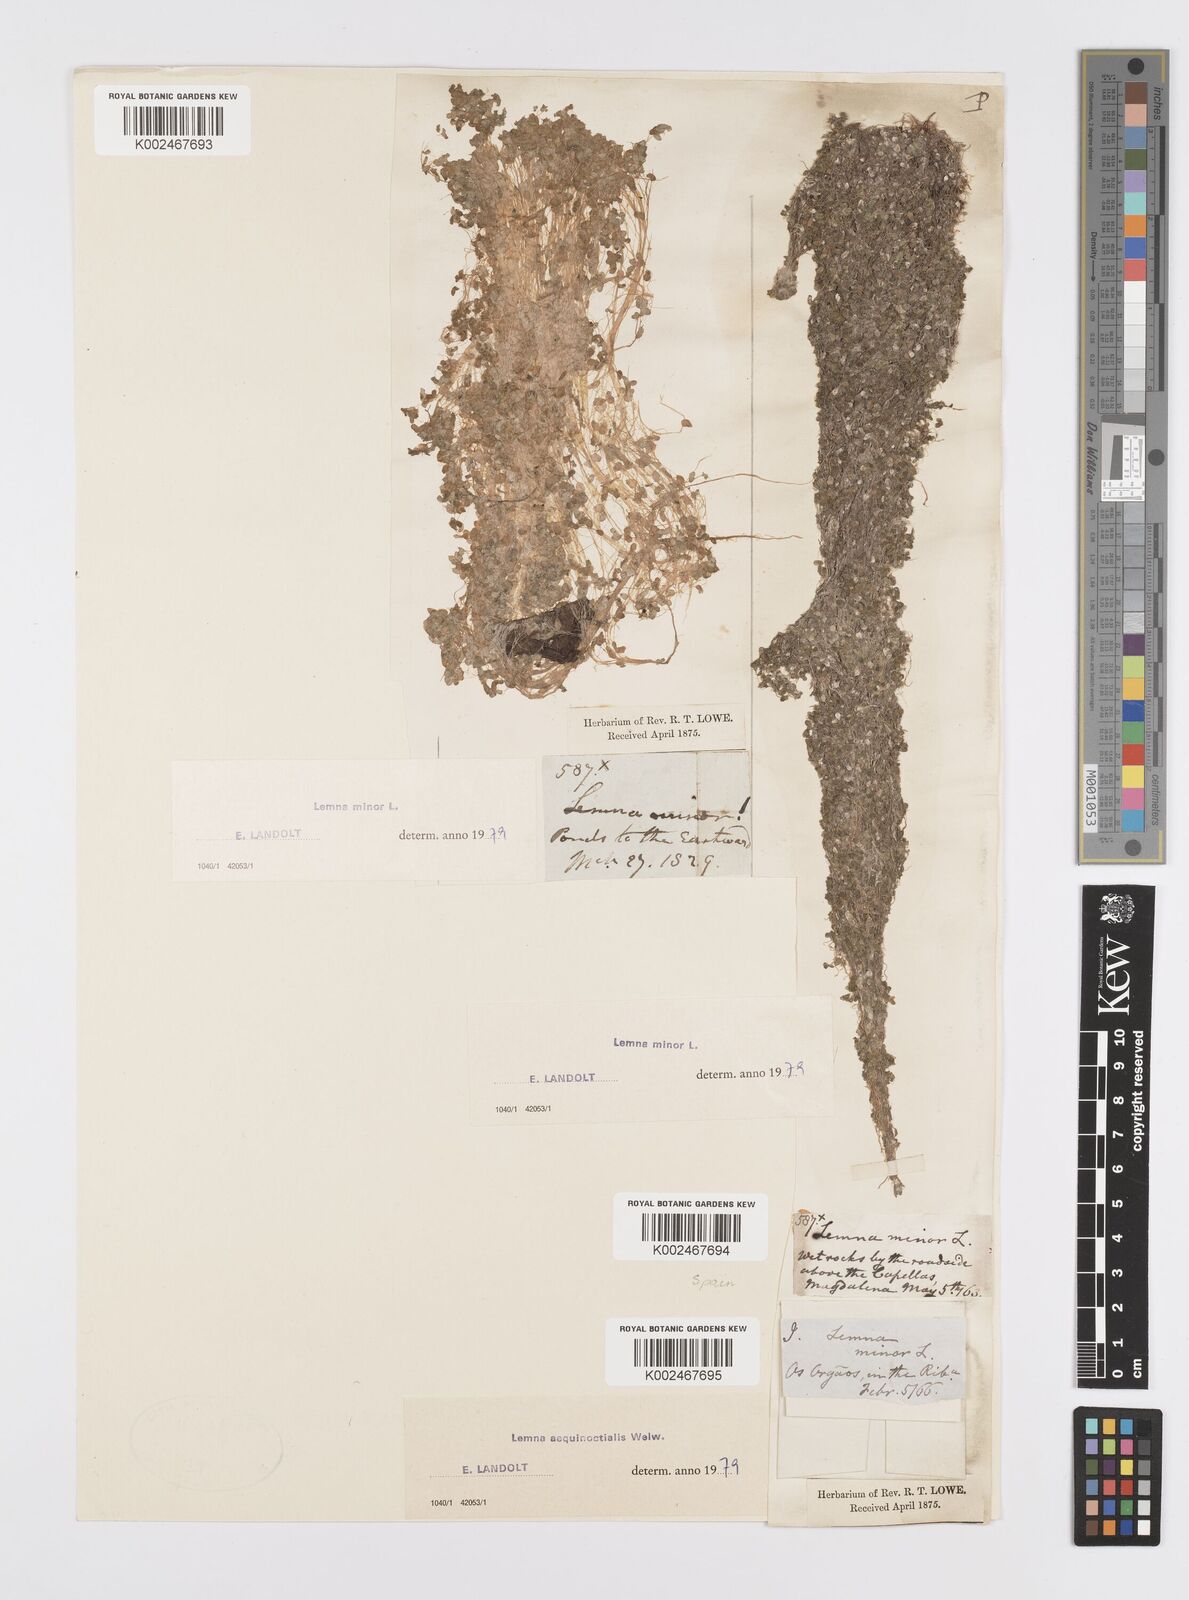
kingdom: Plantae
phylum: Tracheophyta
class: Liliopsida
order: Alismatales
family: Araceae
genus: Lemna
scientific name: Lemna aequinoctialis
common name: Duckweed
